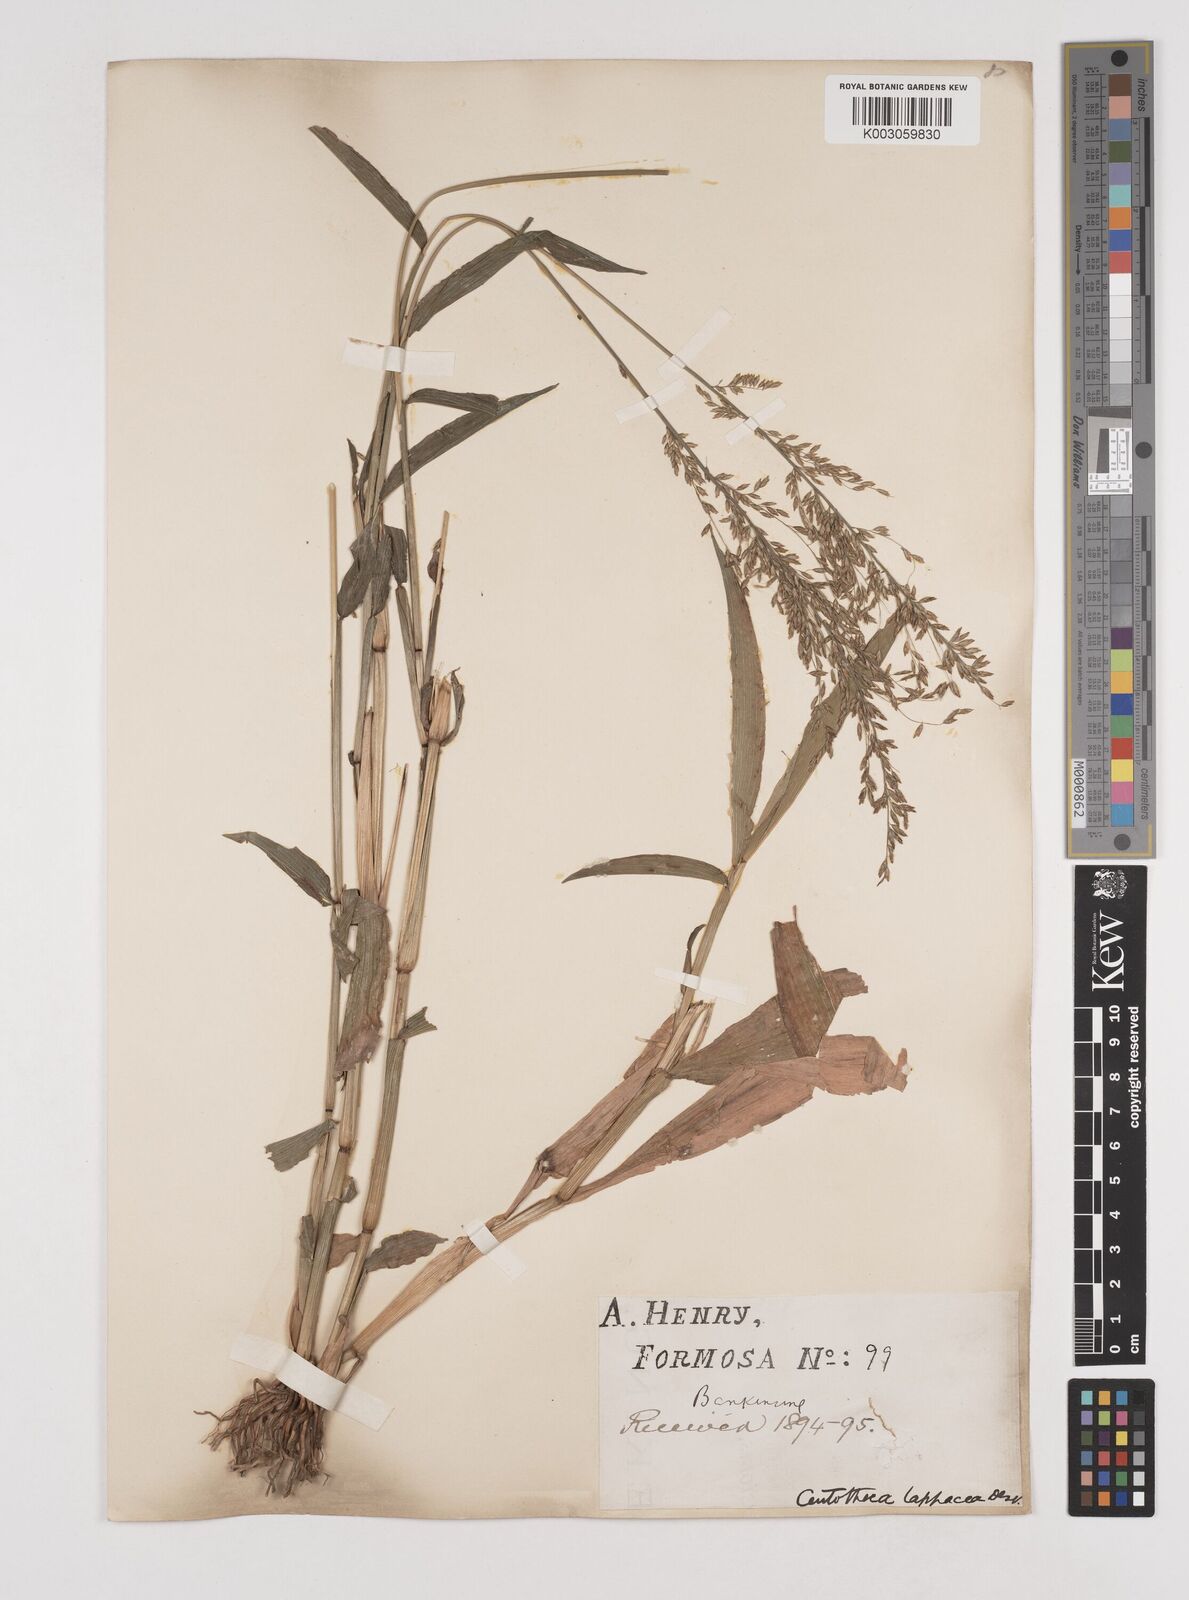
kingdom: Plantae
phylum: Tracheophyta
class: Liliopsida
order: Poales
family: Poaceae
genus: Centotheca
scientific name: Centotheca lappacea
